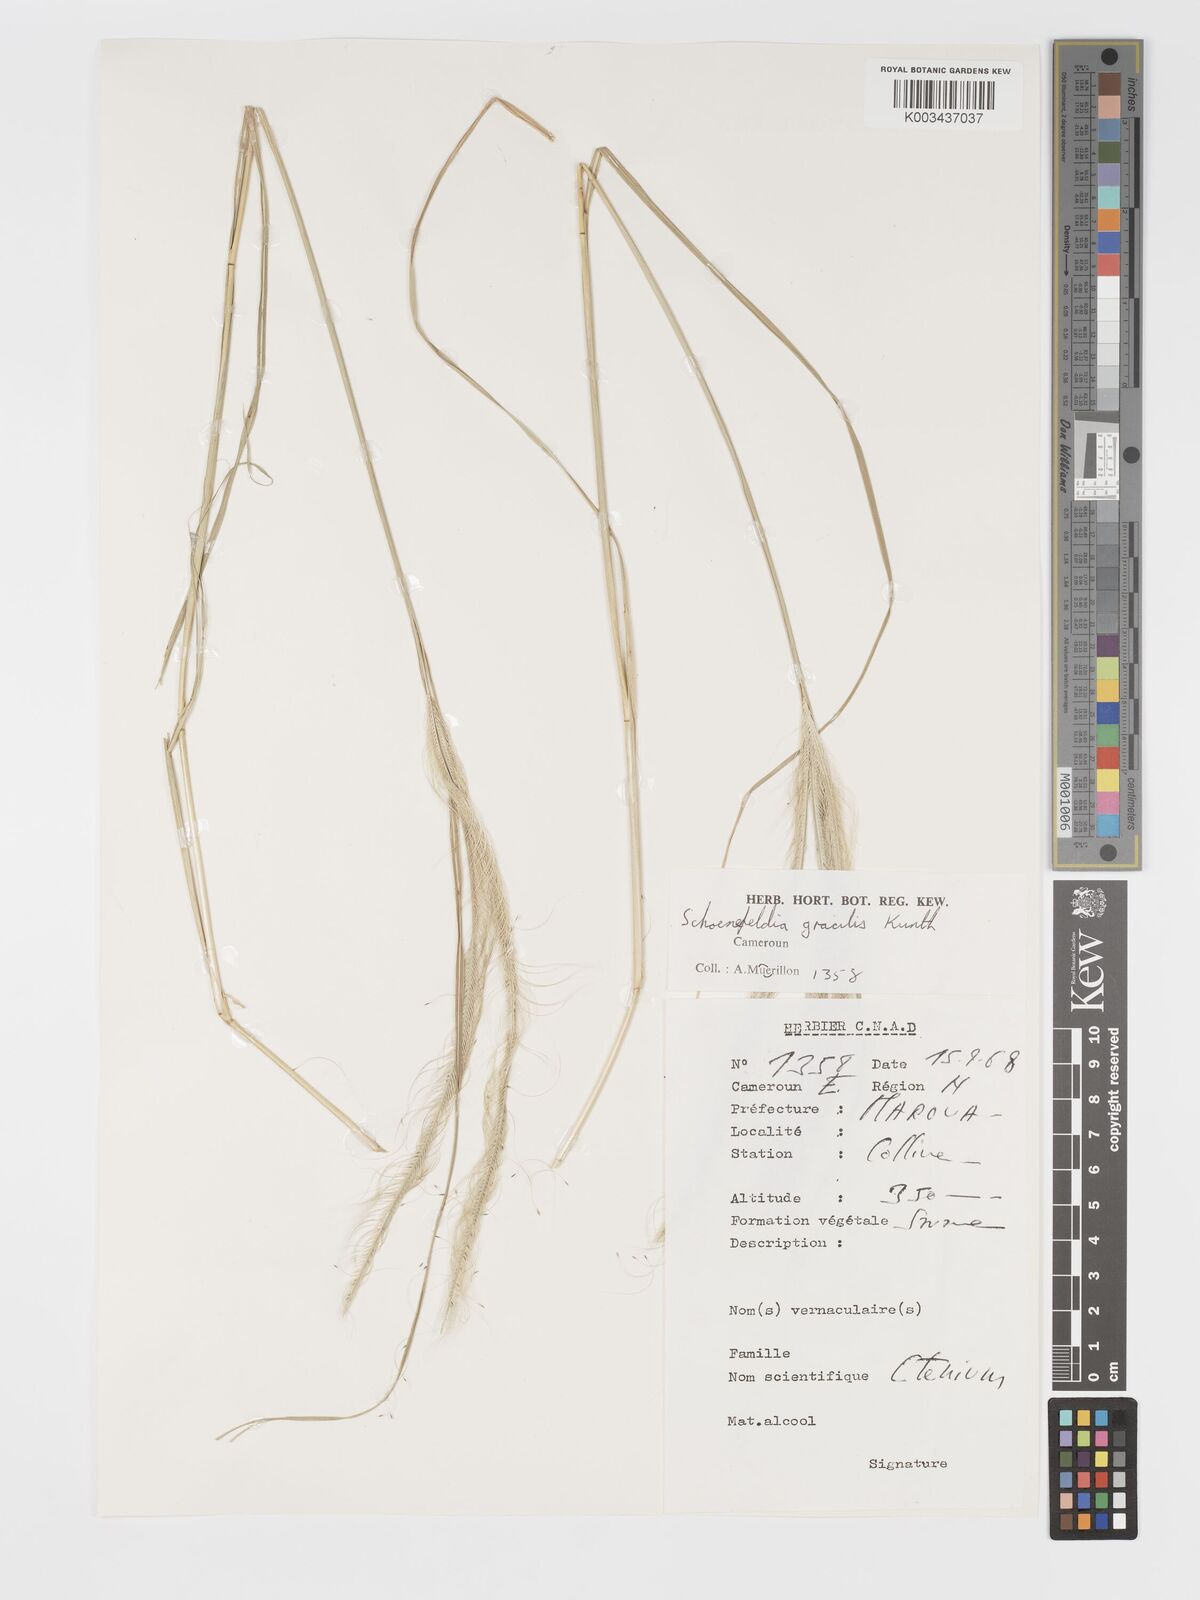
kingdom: Plantae
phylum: Tracheophyta
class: Liliopsida
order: Poales
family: Poaceae
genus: Schoenefeldia
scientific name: Schoenefeldia gracilis
